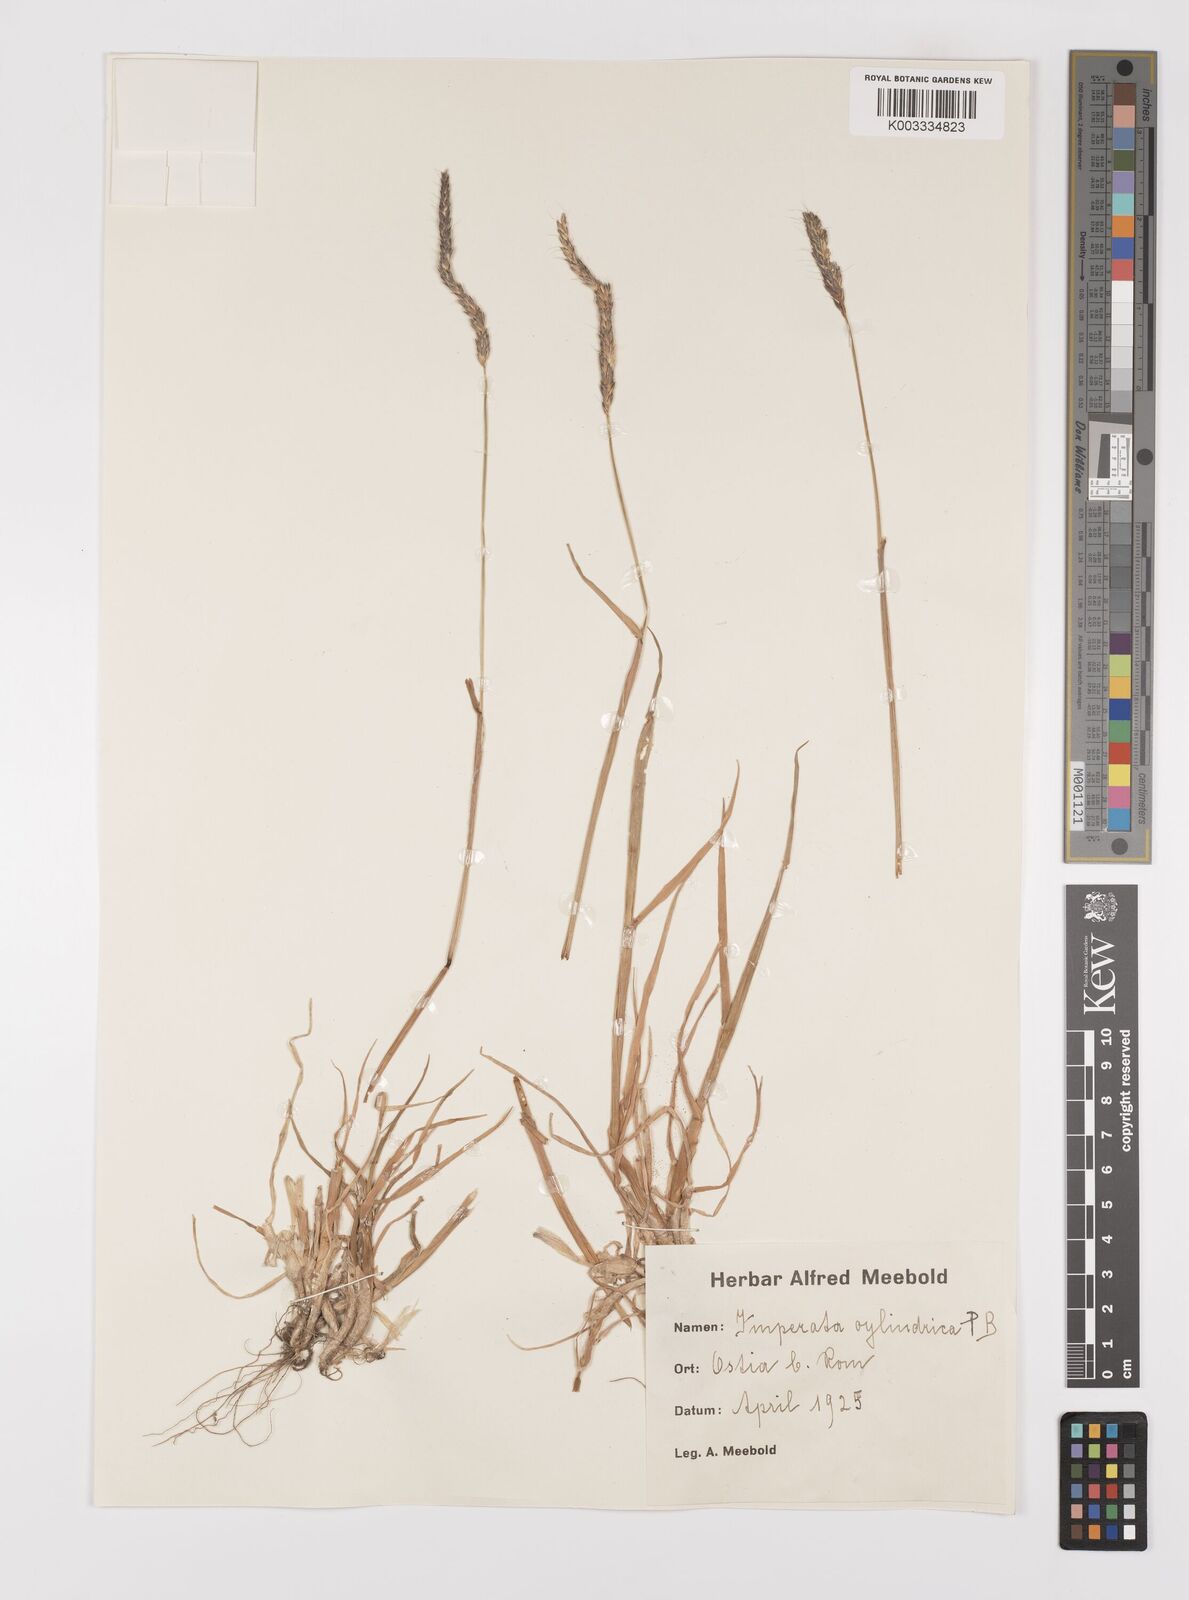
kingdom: Plantae
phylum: Tracheophyta
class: Liliopsida
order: Poales
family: Poaceae
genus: Alopecurus
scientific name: Alopecurus myosuroides
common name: Black-grass
